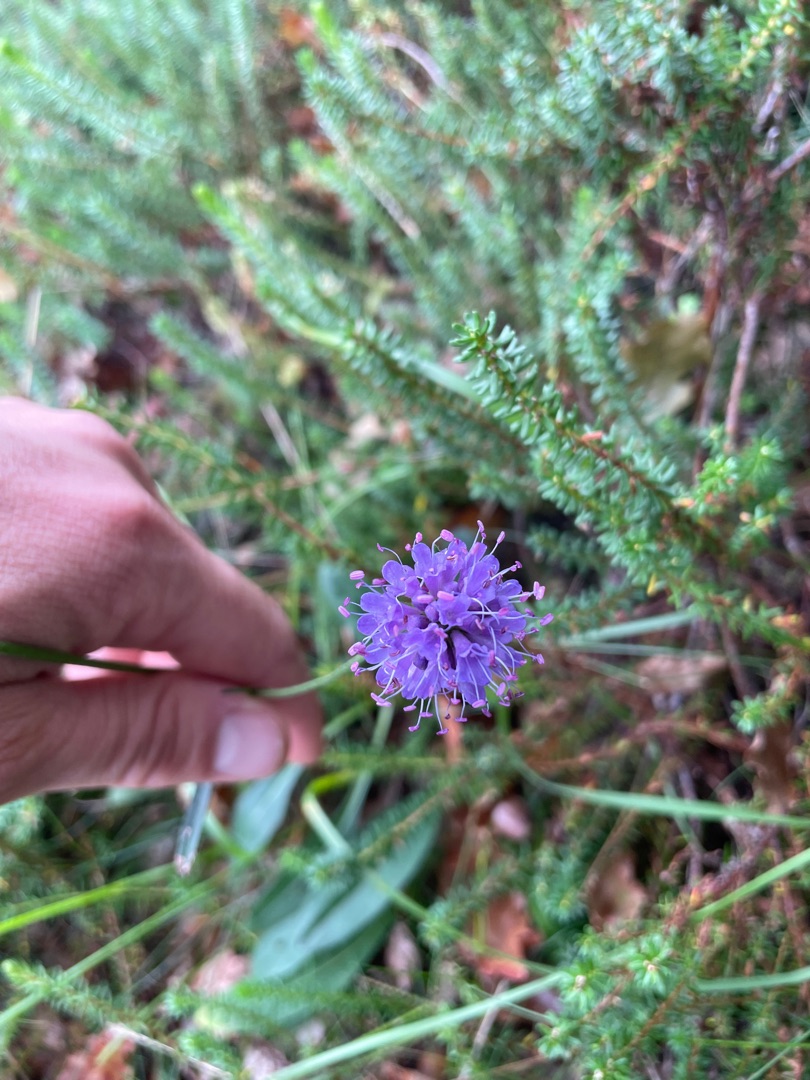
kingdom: Plantae
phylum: Tracheophyta
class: Magnoliopsida
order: Dipsacales
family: Caprifoliaceae
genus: Succisa
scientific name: Succisa pratensis
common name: Djævelsbid
